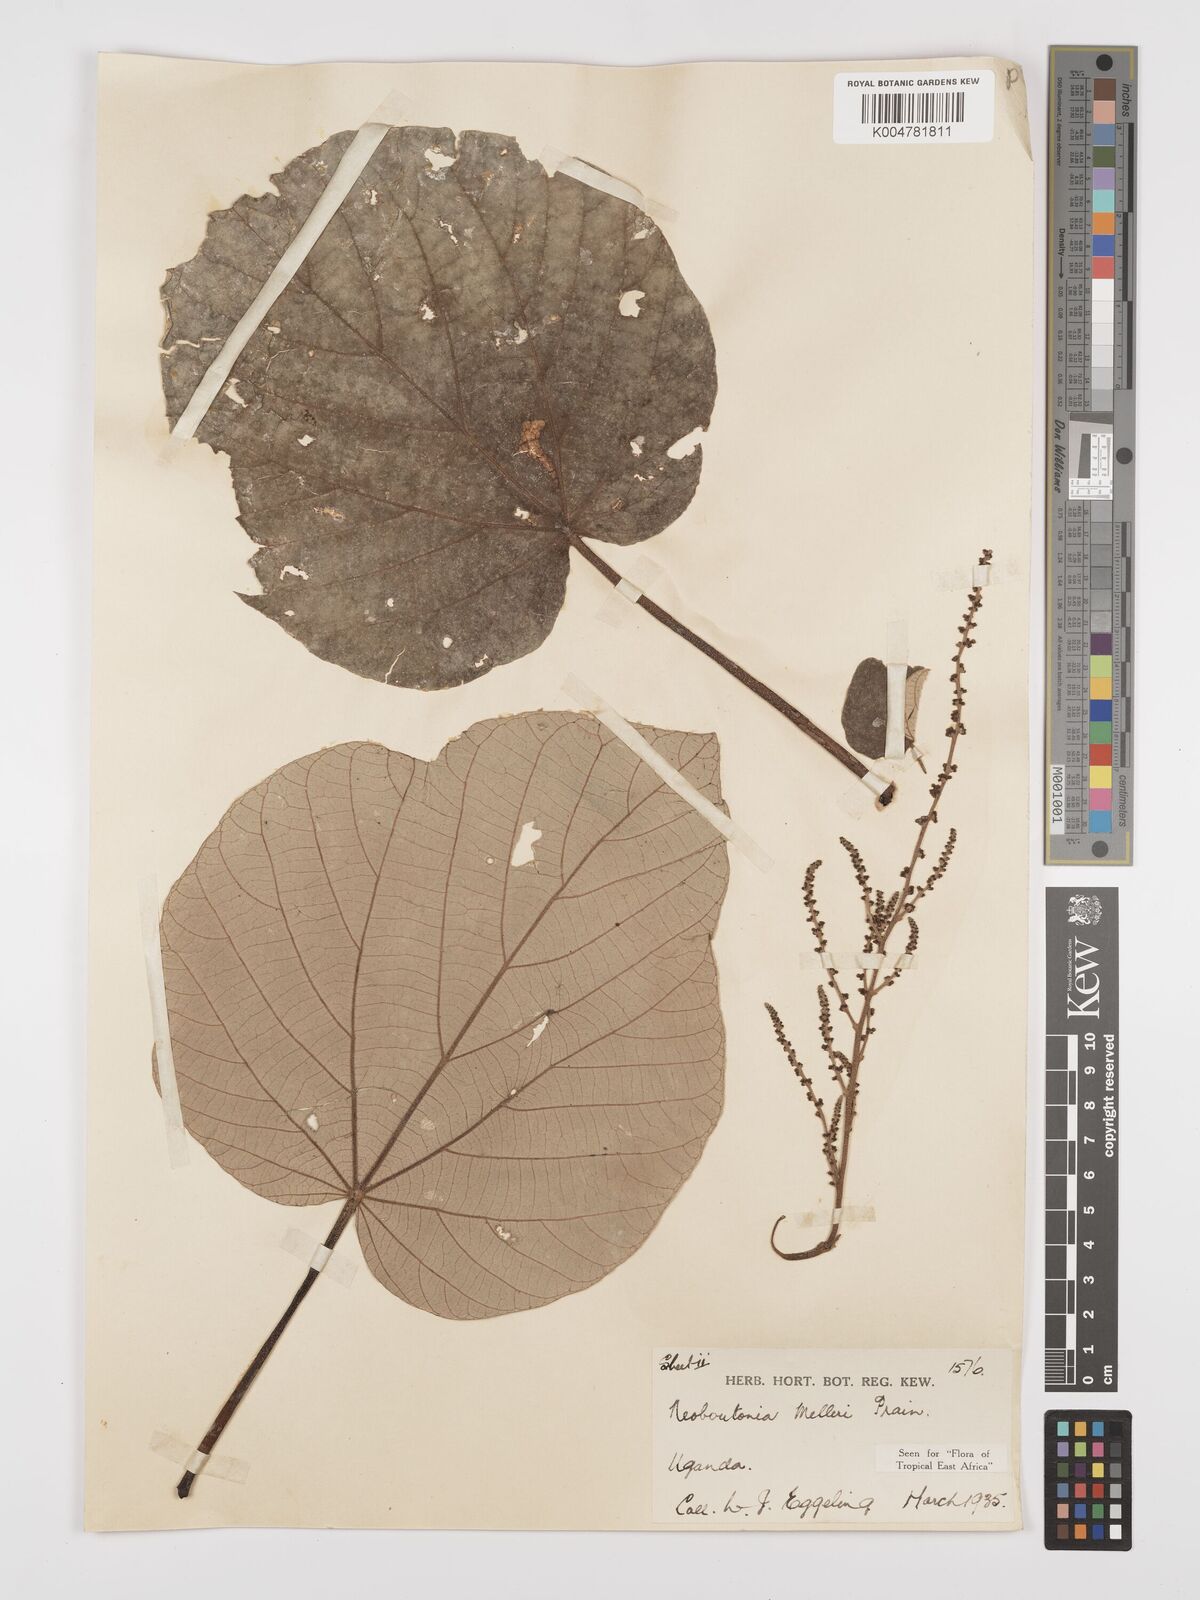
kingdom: Plantae
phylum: Tracheophyta
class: Magnoliopsida
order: Malpighiales
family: Euphorbiaceae
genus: Neoboutonia
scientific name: Neoboutonia melleri
